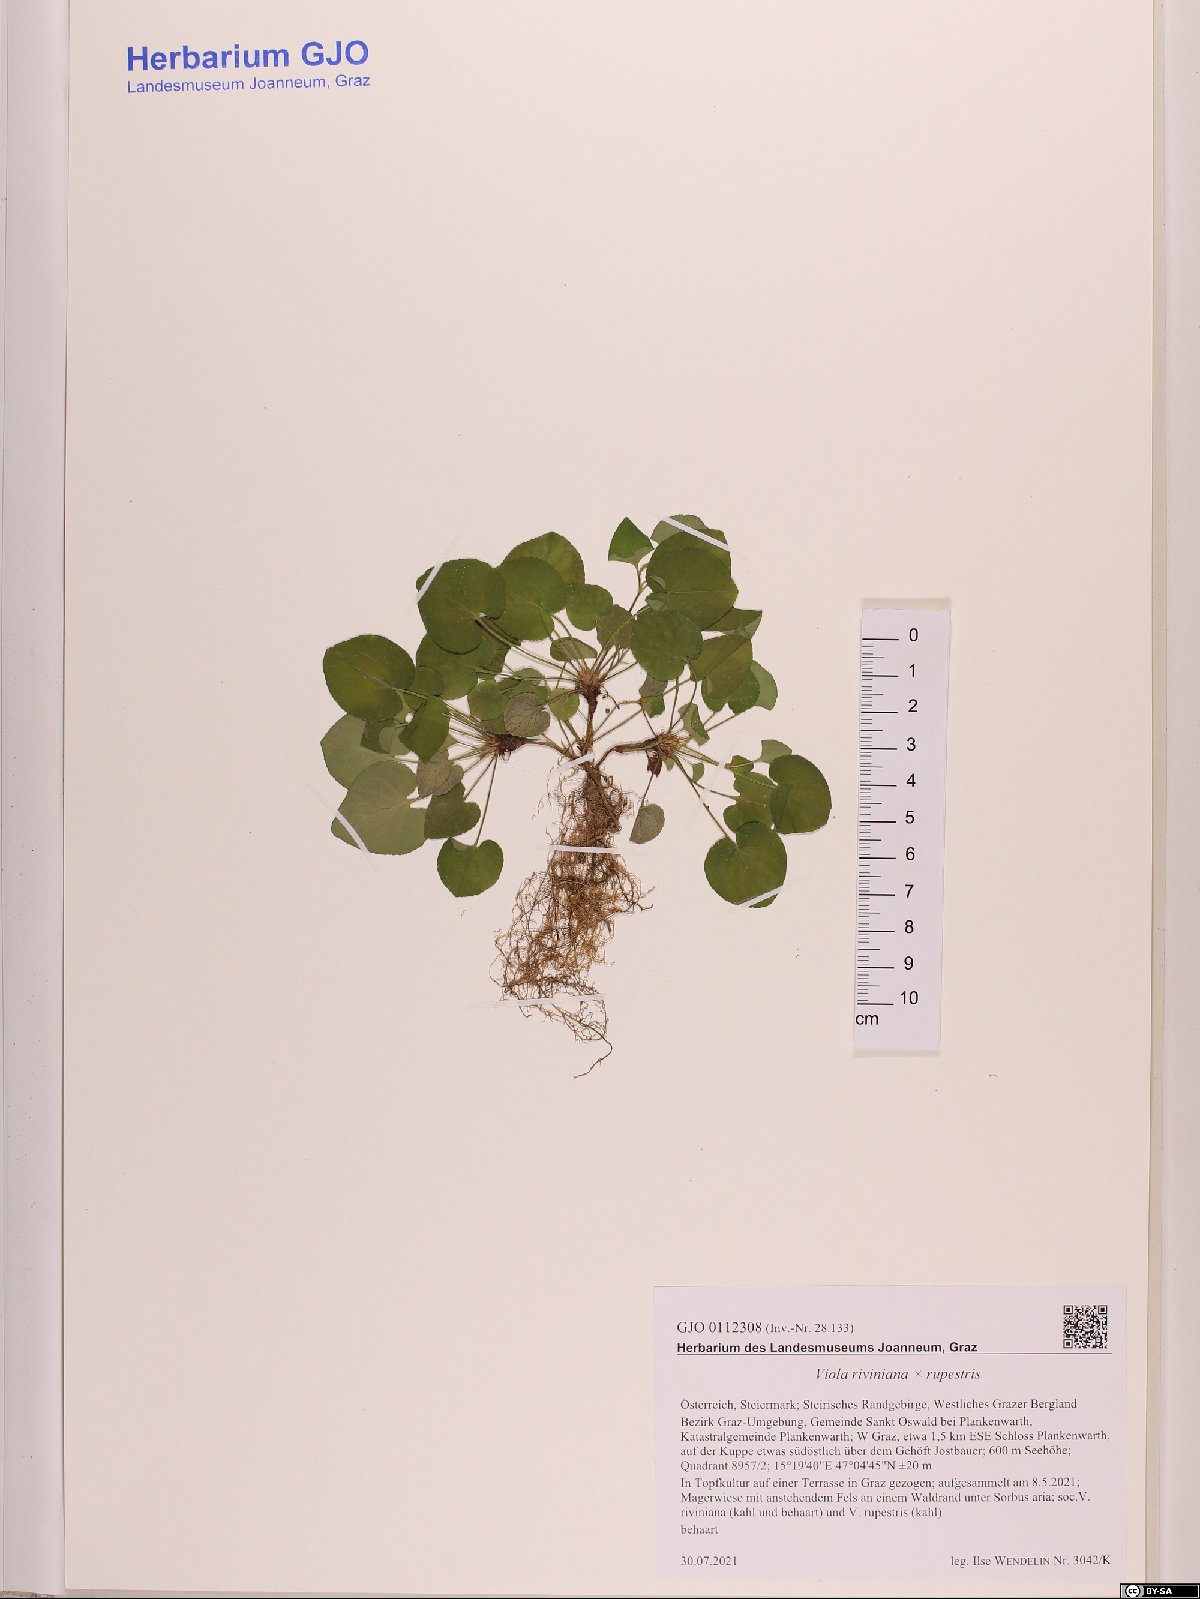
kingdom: Plantae
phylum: Tracheophyta
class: Magnoliopsida
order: Malpighiales
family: Violaceae
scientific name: Violaceae
